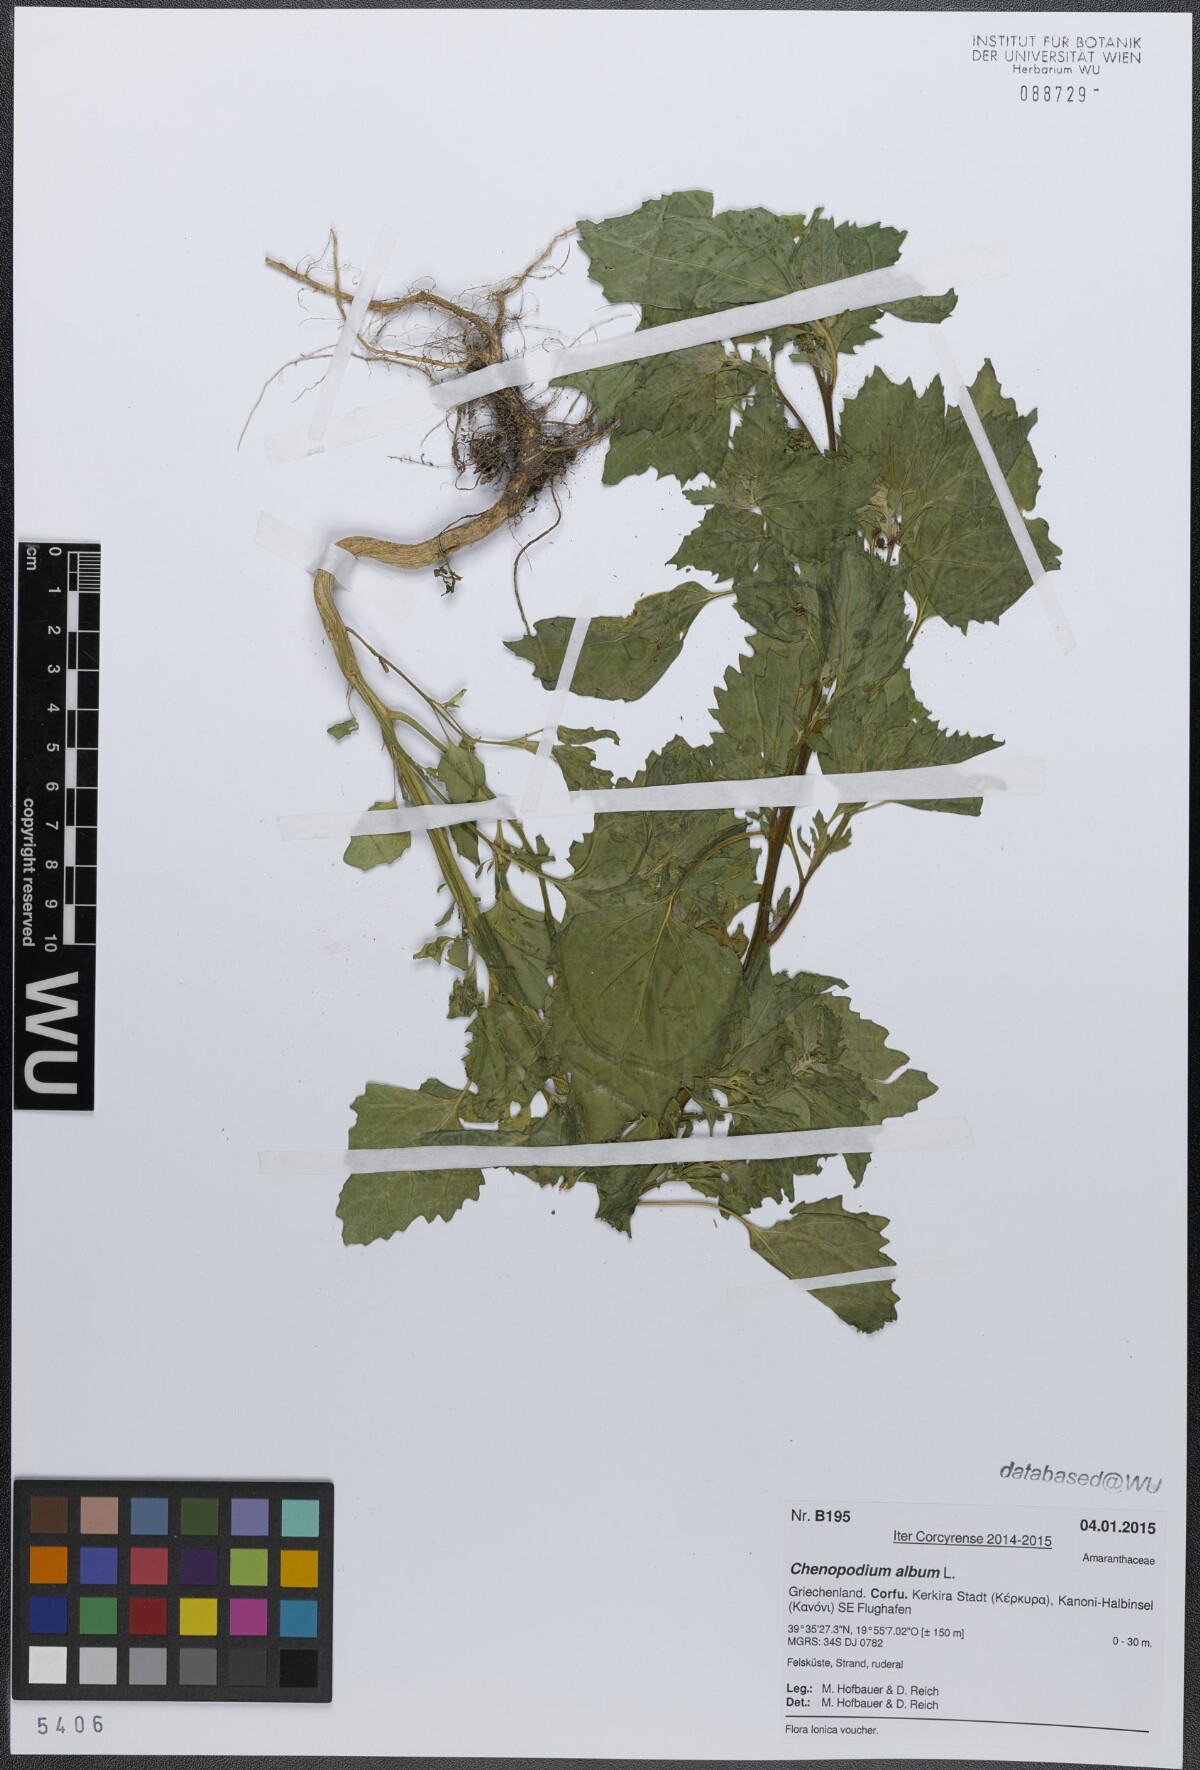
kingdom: Plantae
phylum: Tracheophyta
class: Magnoliopsida
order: Caryophyllales
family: Amaranthaceae
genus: Chenopodium
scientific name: Chenopodium album
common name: Fat-hen
